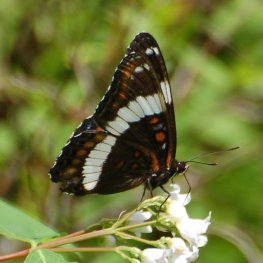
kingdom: Animalia
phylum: Arthropoda
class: Insecta
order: Lepidoptera
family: Nymphalidae
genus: Limenitis
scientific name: Limenitis arthemis
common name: Red-spotted Admiral
